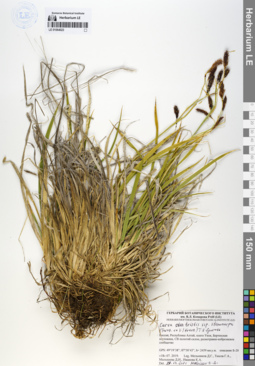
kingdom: Plantae
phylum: Tracheophyta
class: Liliopsida
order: Poales
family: Cyperaceae
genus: Carex
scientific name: Carex stenocarpa
